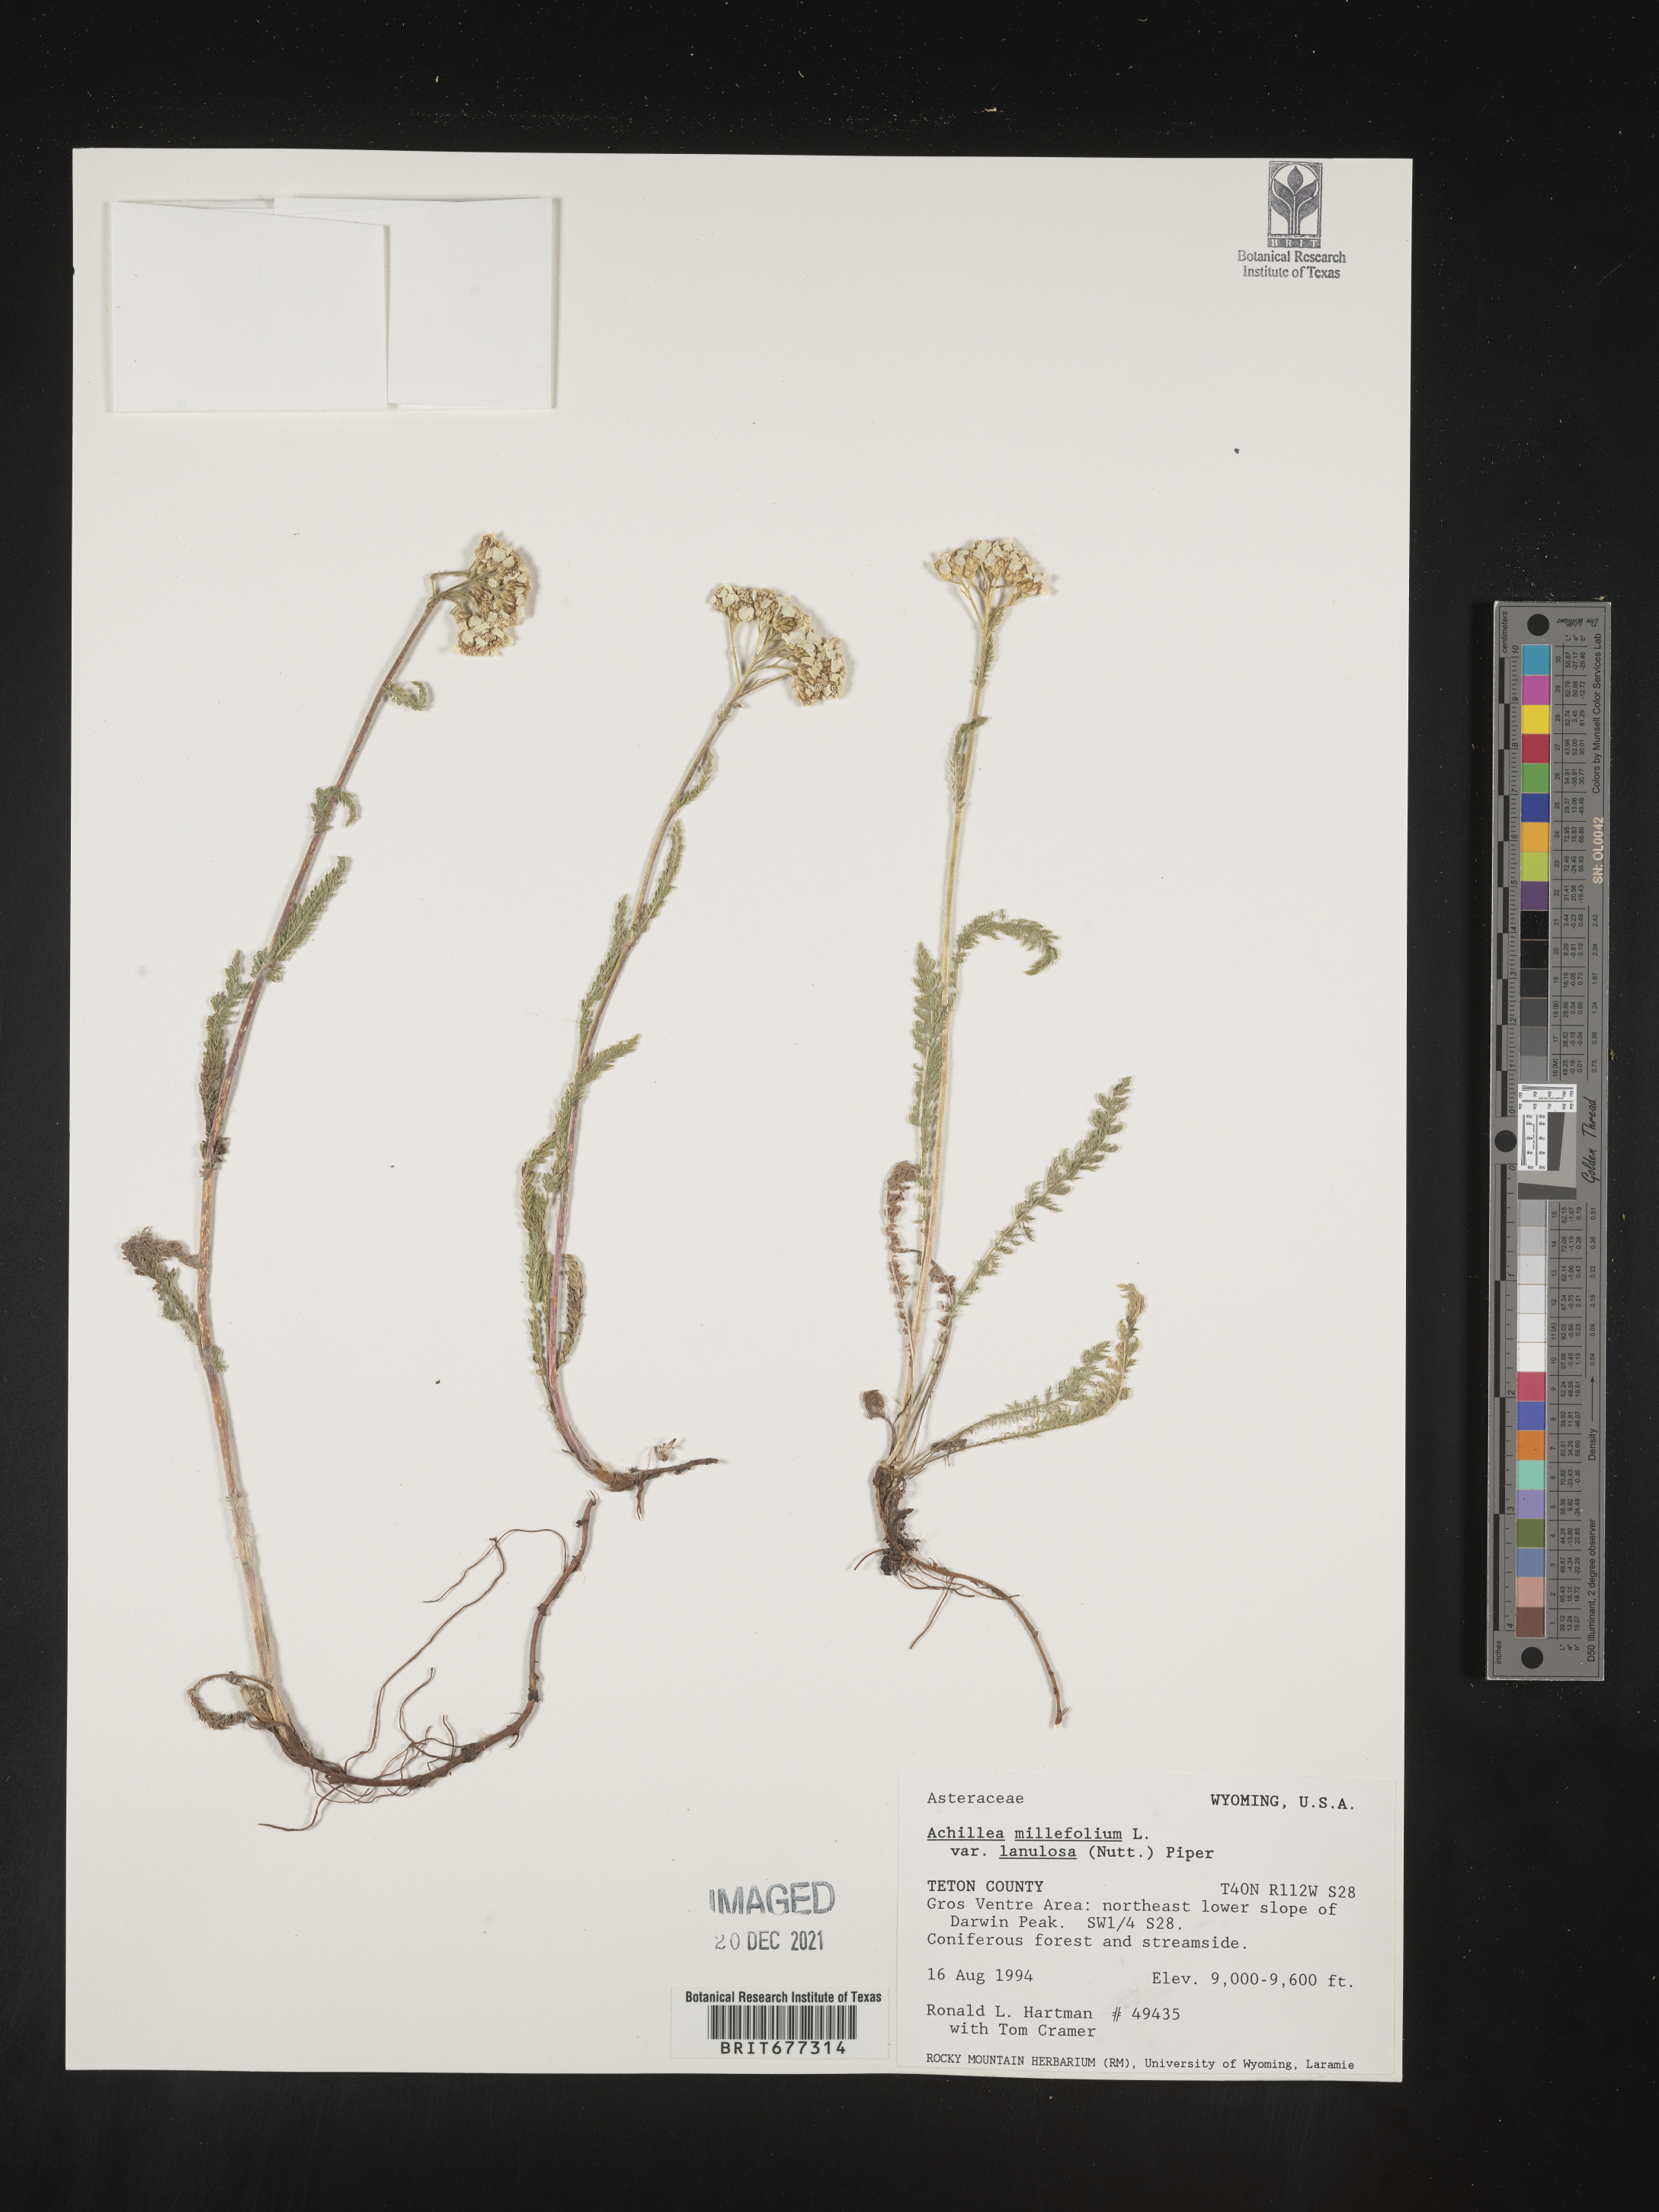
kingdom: Plantae
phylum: Tracheophyta
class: Magnoliopsida
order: Asterales
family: Asteraceae
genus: Achillea
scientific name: Achillea millefolium
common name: Yarrow
